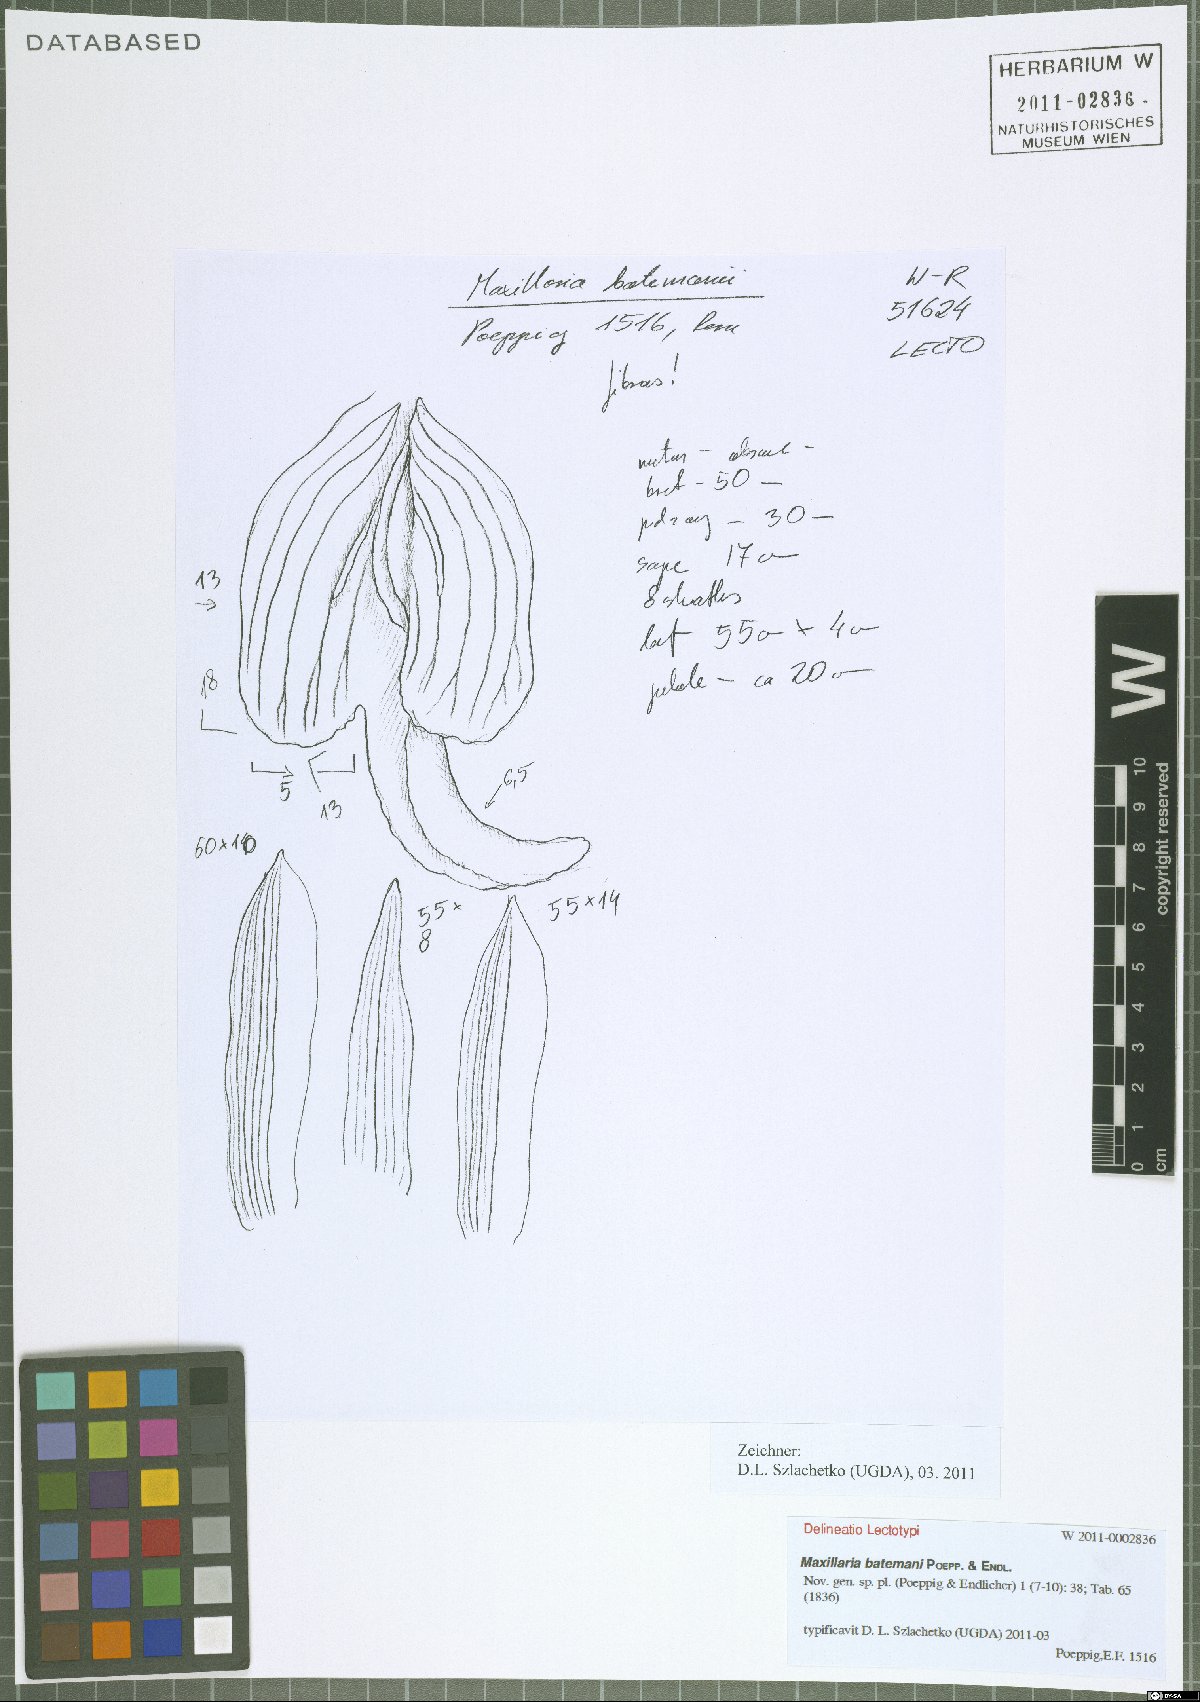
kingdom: Plantae
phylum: Tracheophyta
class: Liliopsida
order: Asparagales
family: Orchidaceae
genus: Maxillaria
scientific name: Maxillaria batemanii
